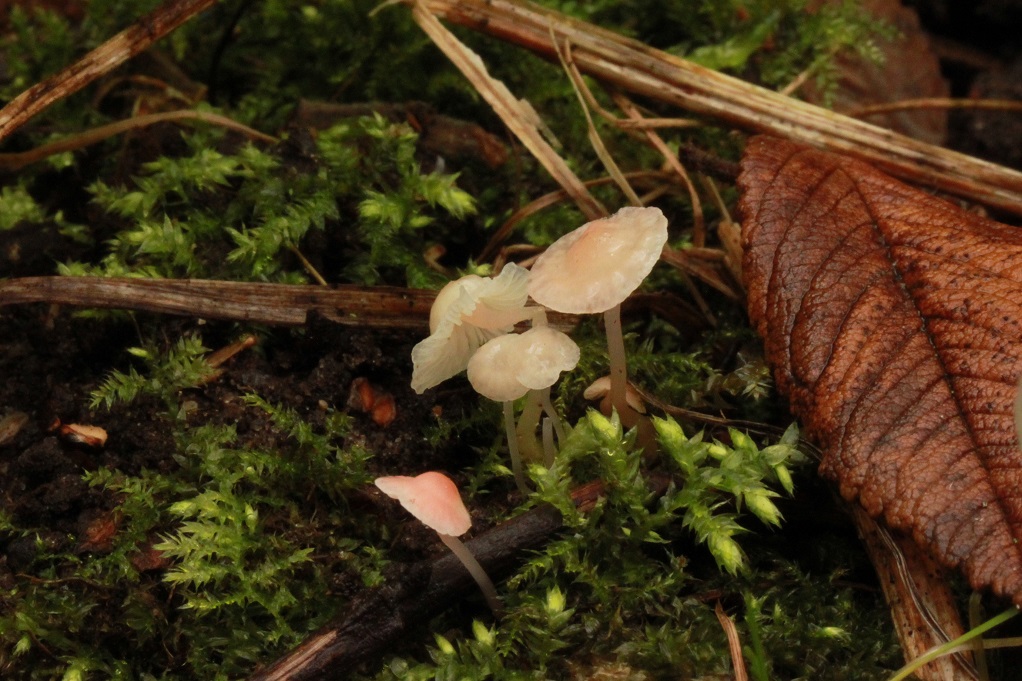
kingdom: Fungi
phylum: Basidiomycota
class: Agaricomycetes
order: Agaricales
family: Mycenaceae
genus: Mycena
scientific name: Mycena coccinea
